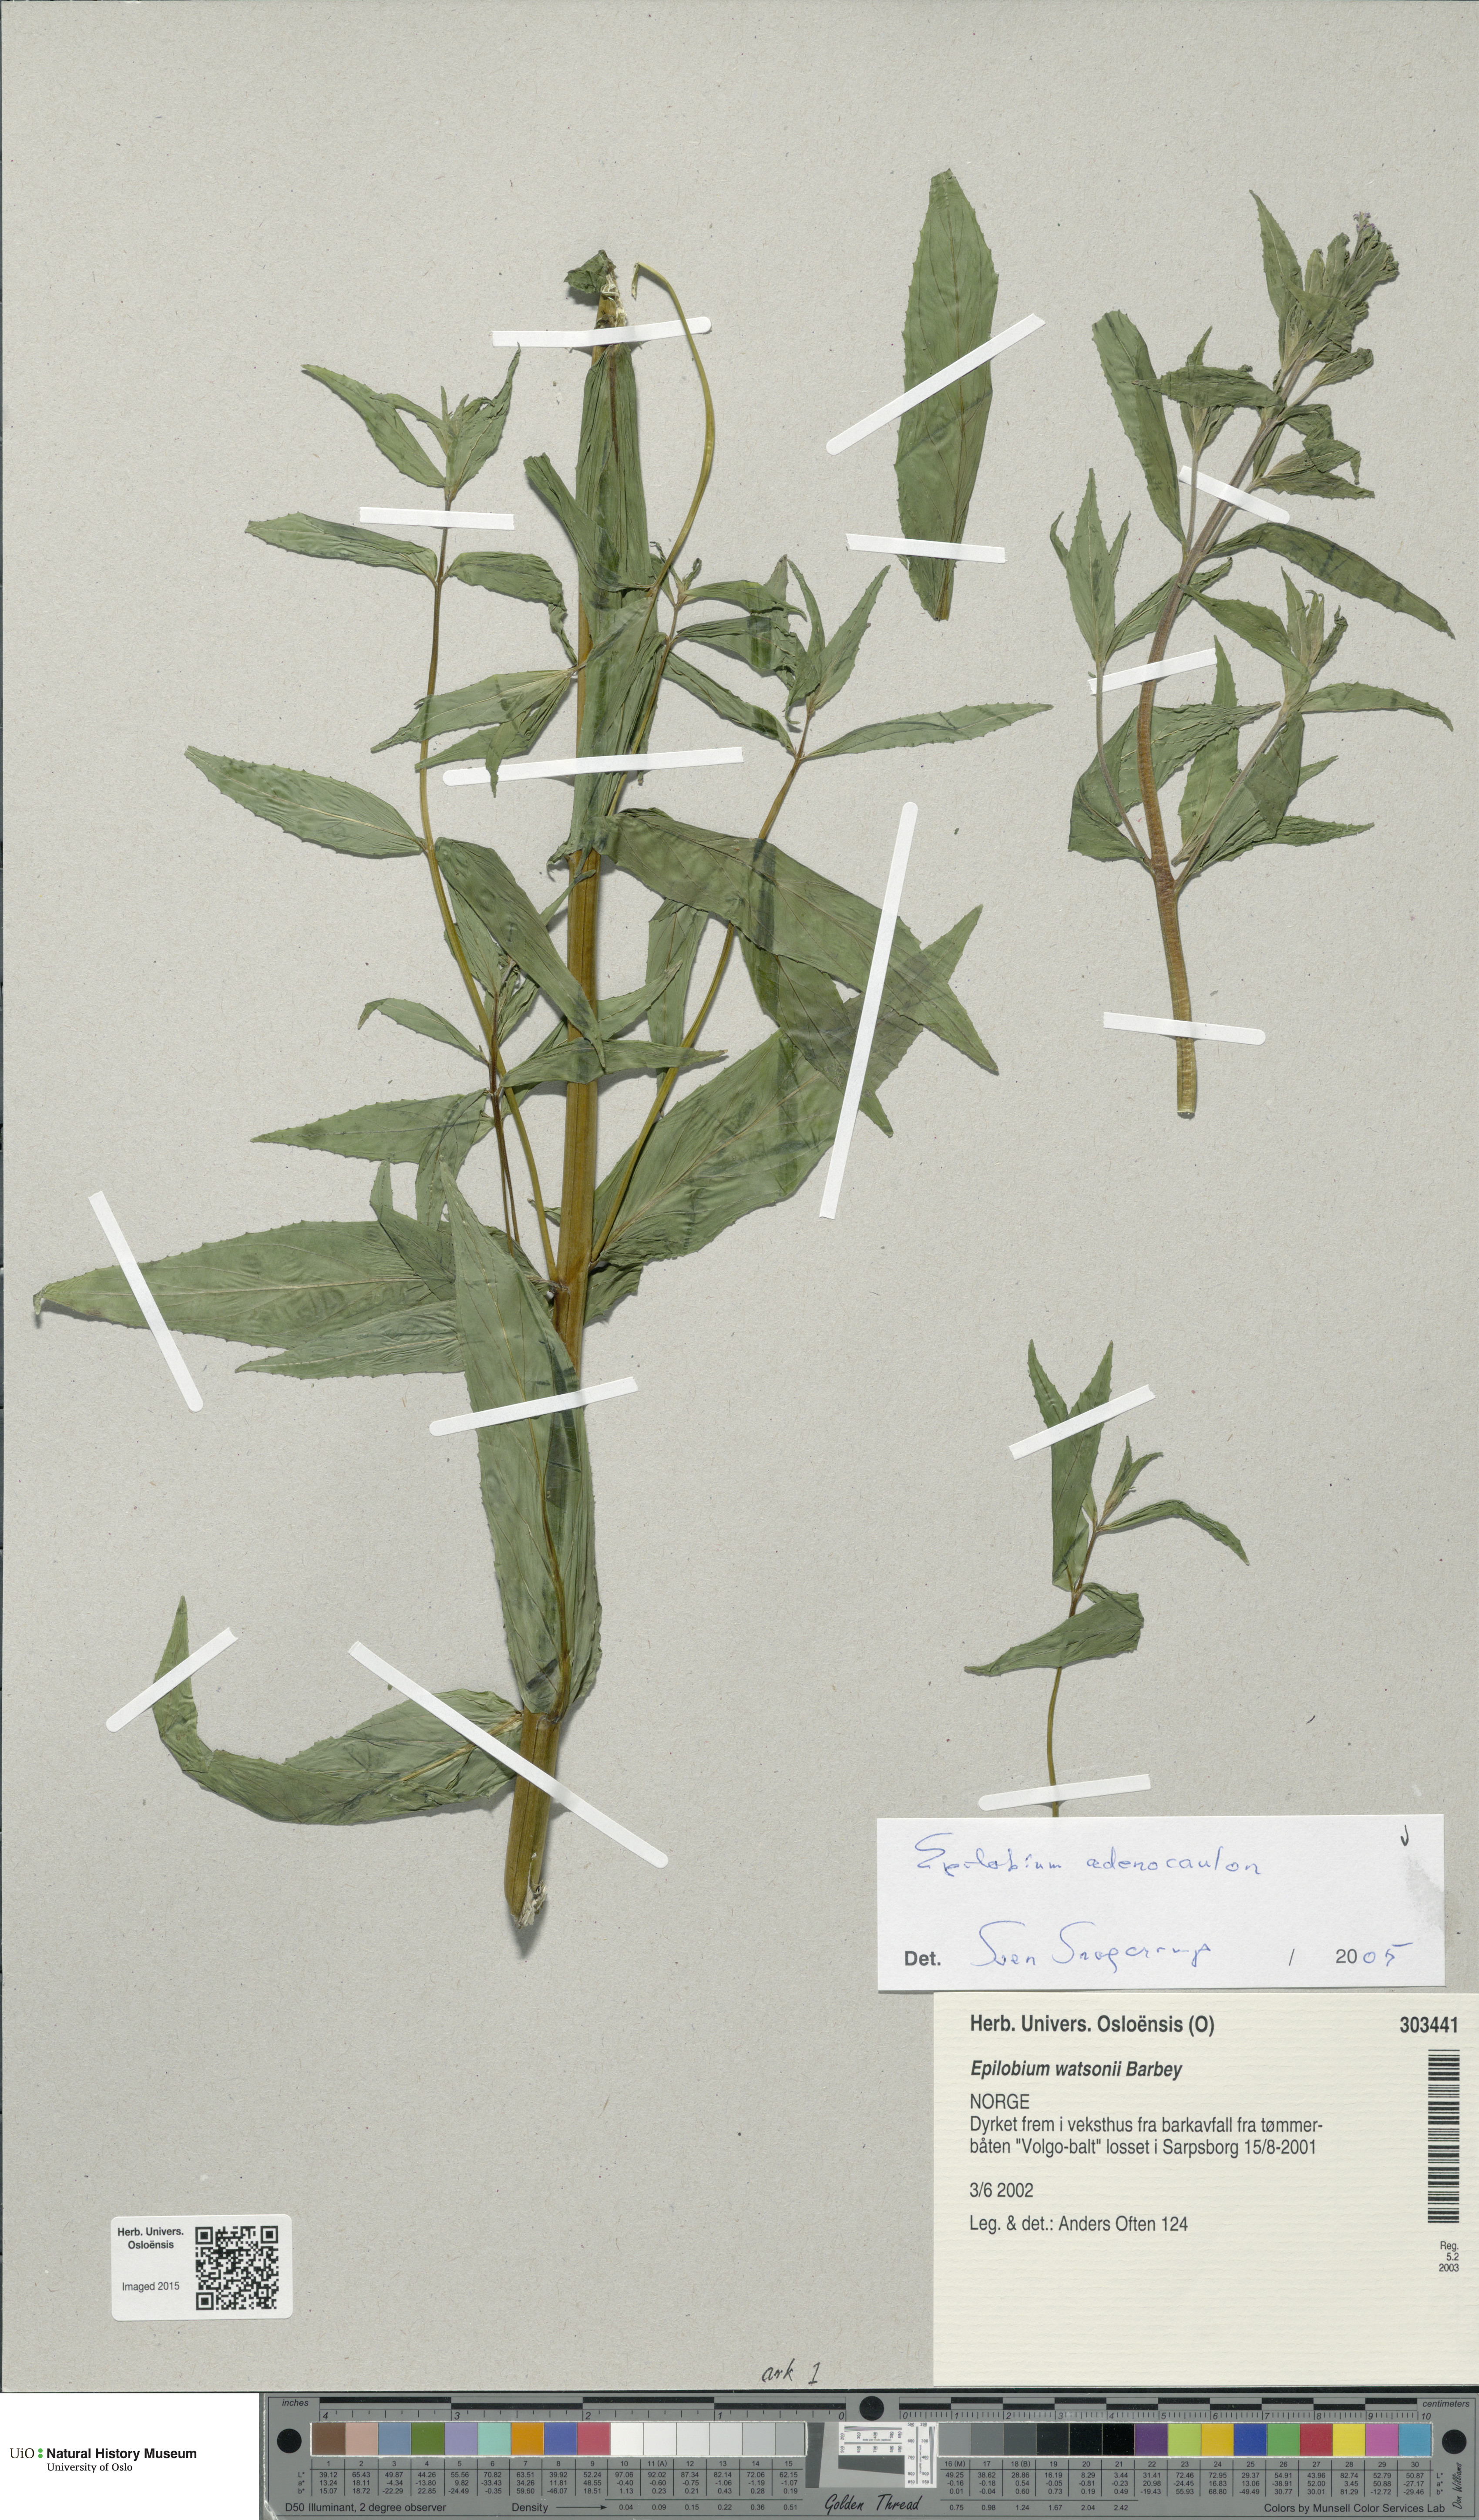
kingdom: Plantae
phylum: Tracheophyta
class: Magnoliopsida
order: Myrtales
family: Onagraceae
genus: Epilobium
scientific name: Epilobium ciliatum
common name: American willowherb
